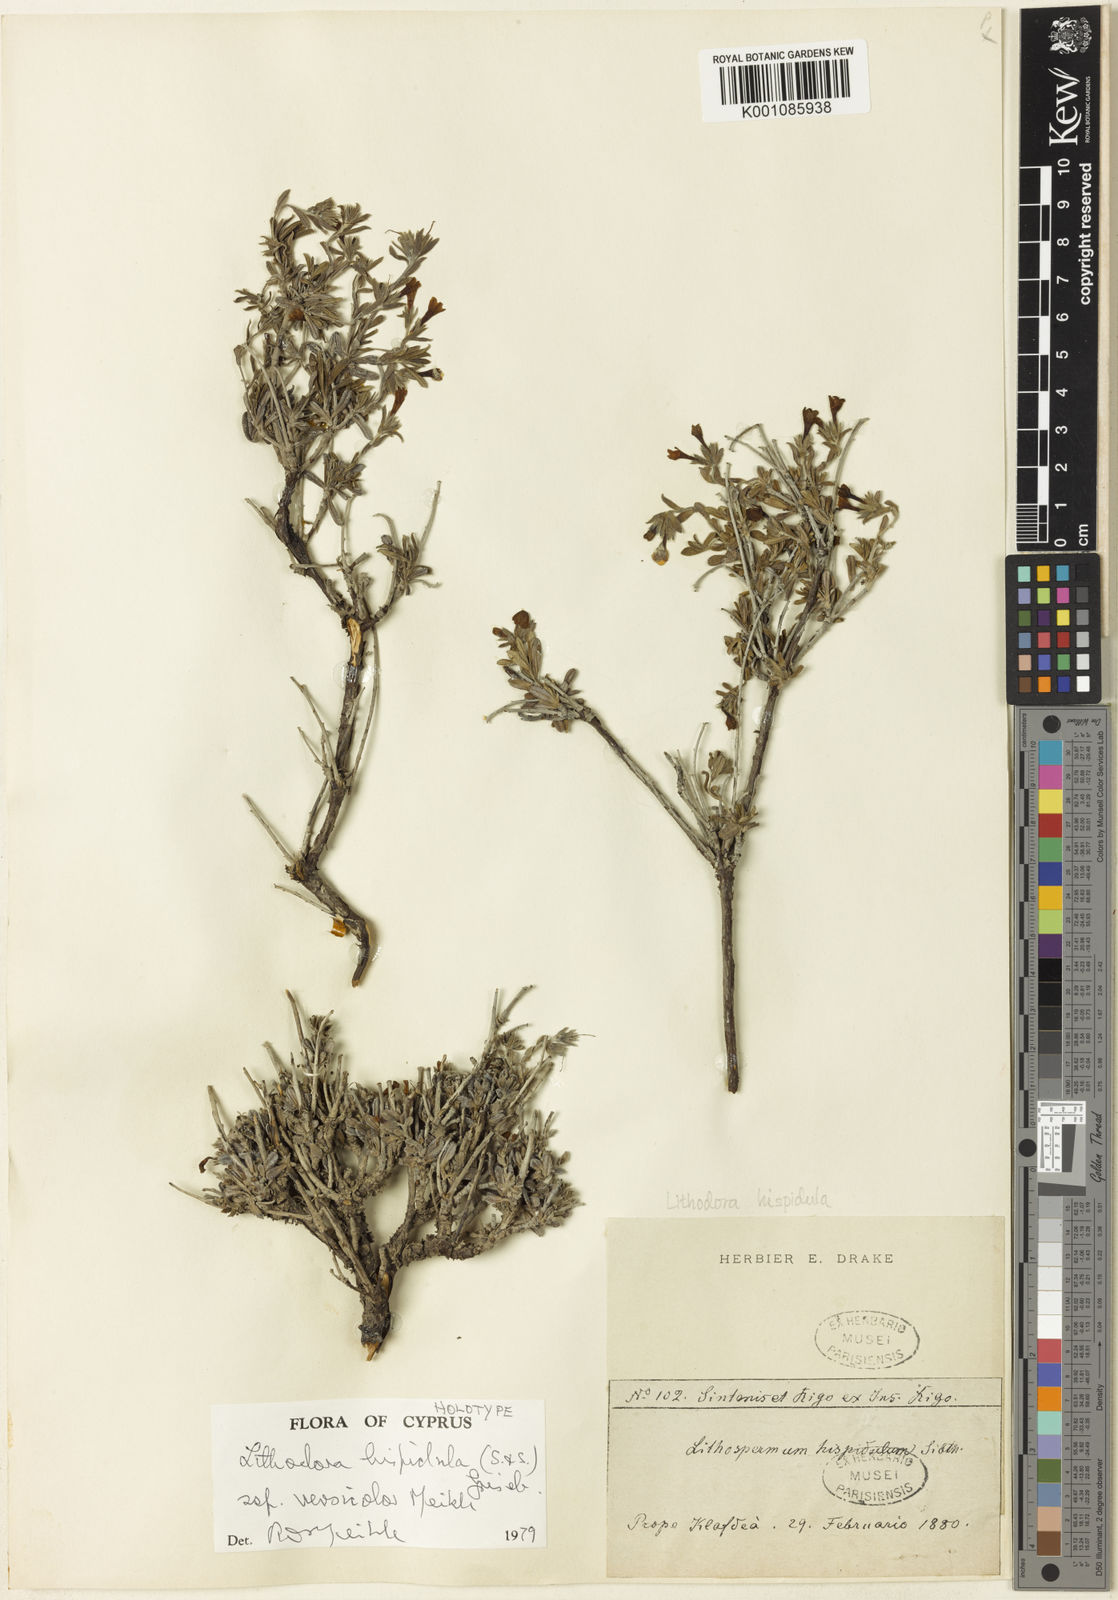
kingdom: Plantae
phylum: Tracheophyta
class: Magnoliopsida
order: Boraginales
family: Boraginaceae
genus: Lithodora
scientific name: Lithodora hispidula
